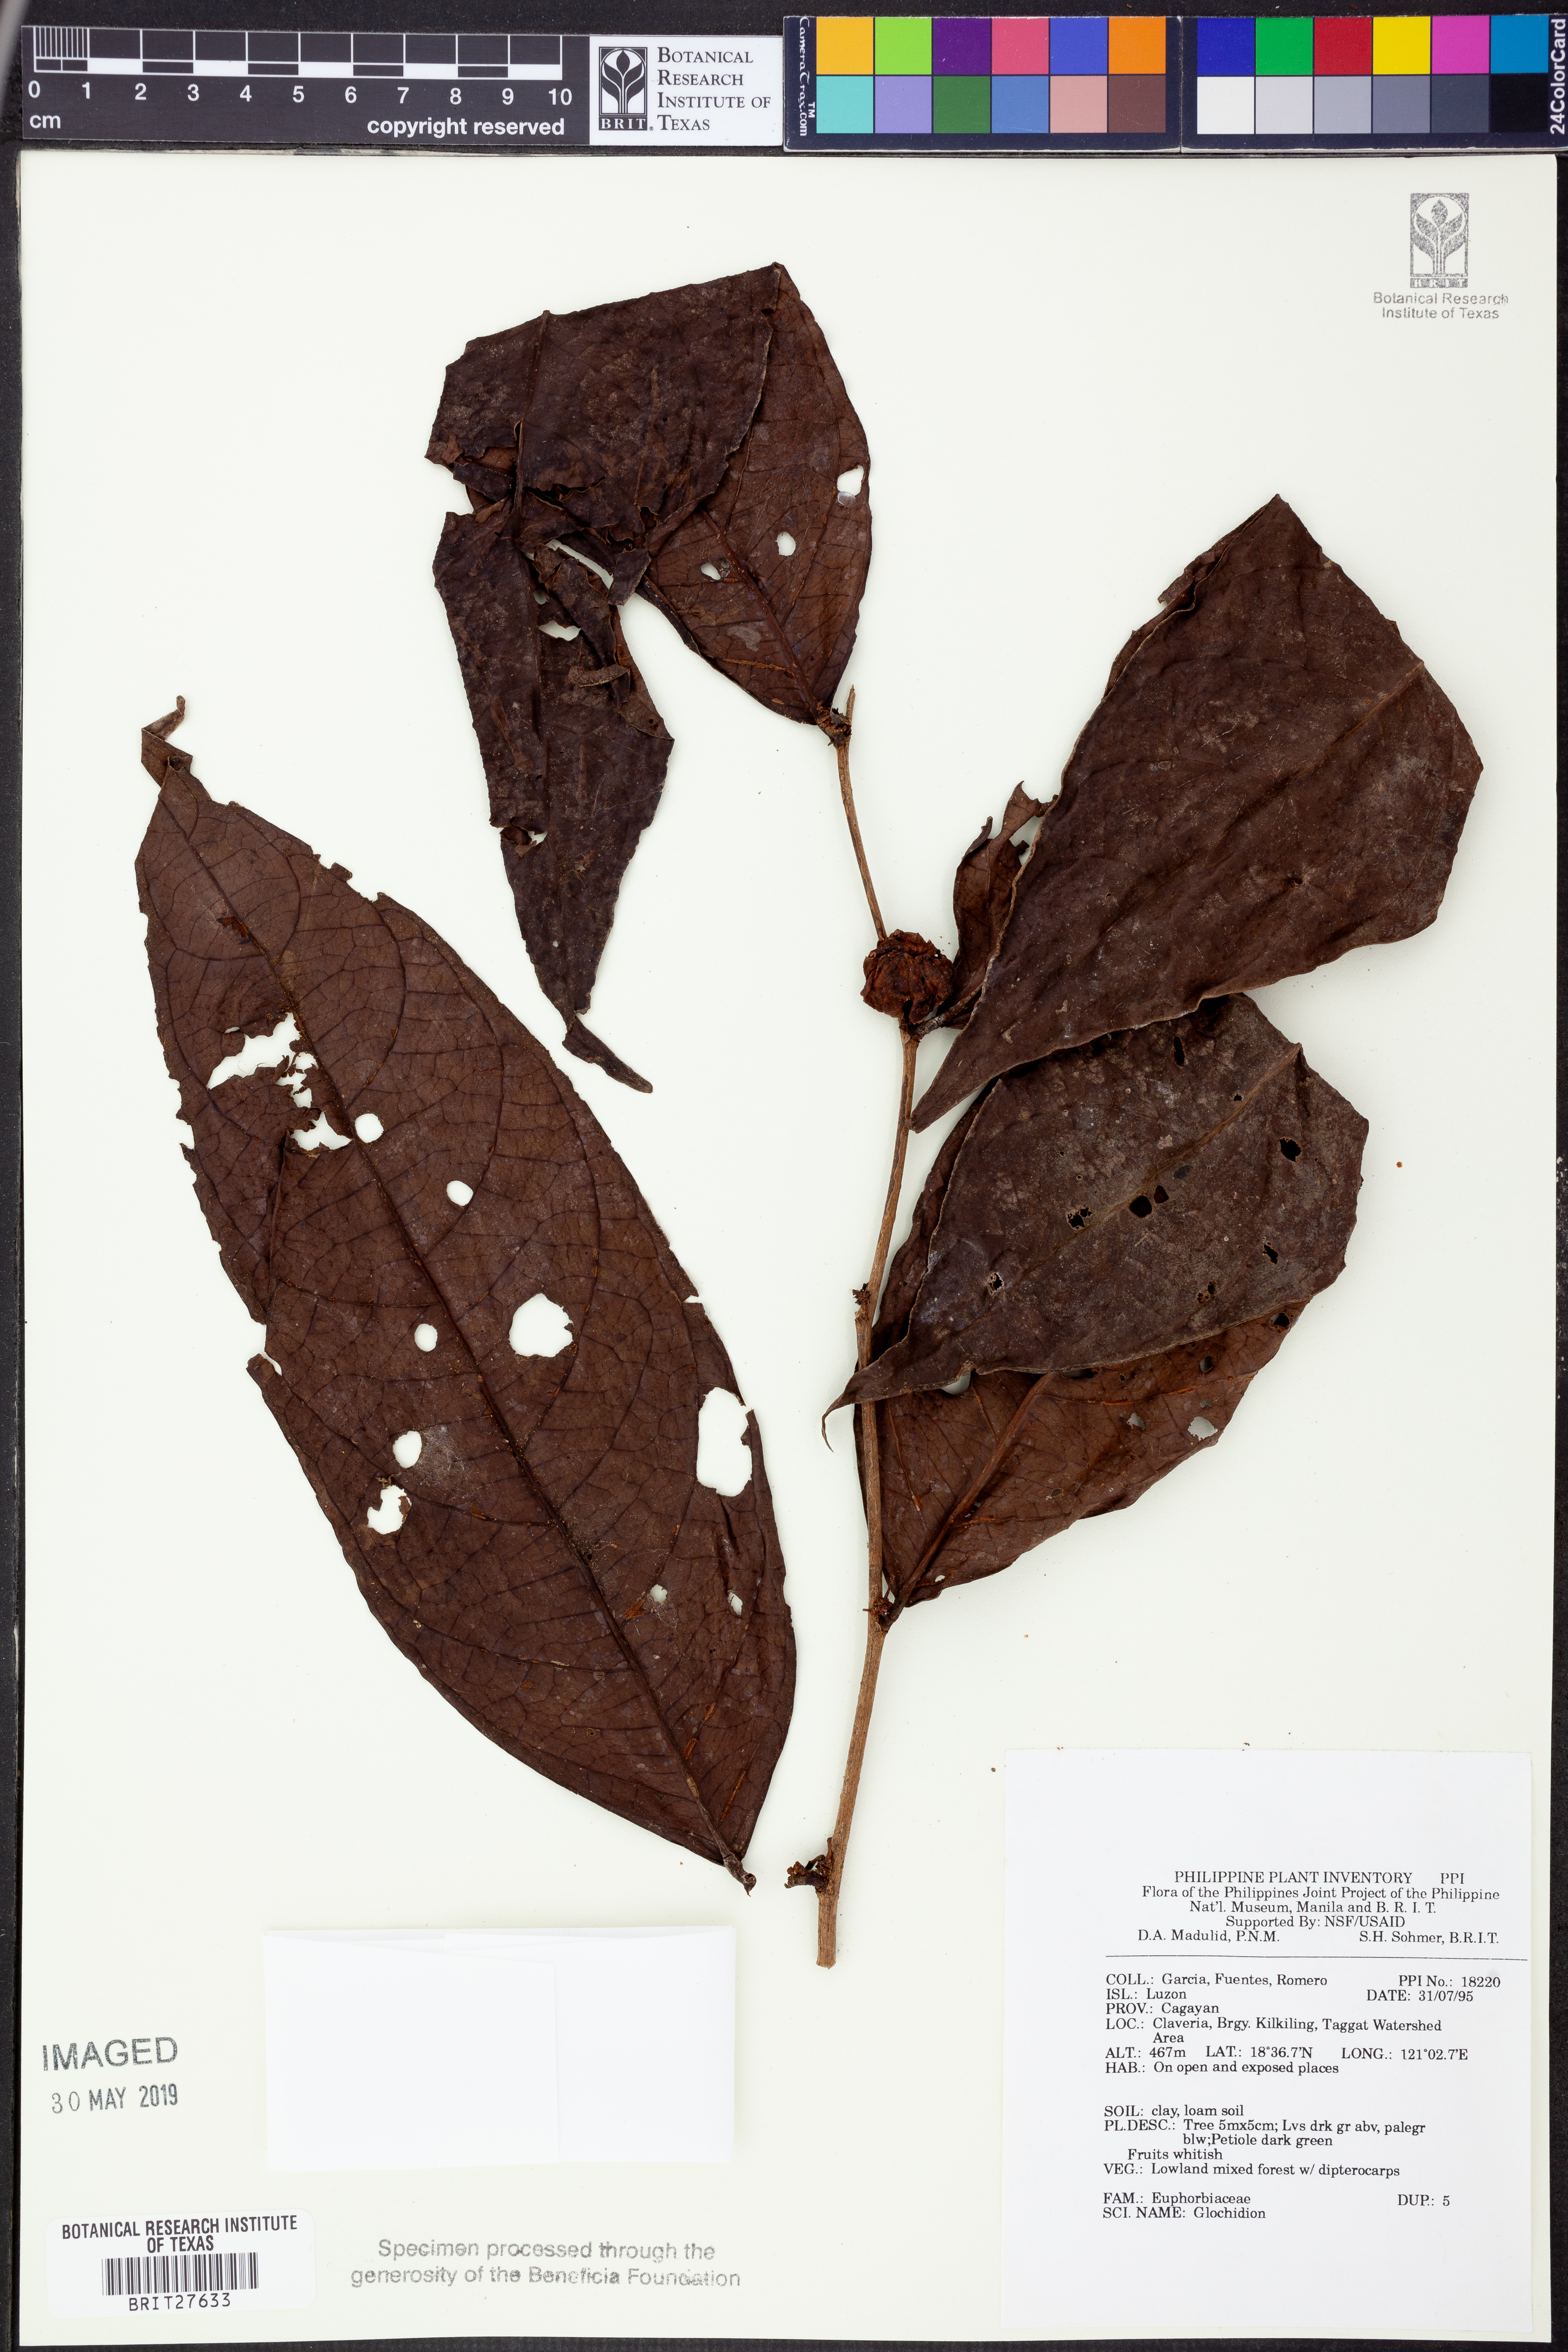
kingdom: Plantae
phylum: Tracheophyta
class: Magnoliopsida
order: Malpighiales
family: Phyllanthaceae
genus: Glochidion
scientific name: Glochidion
